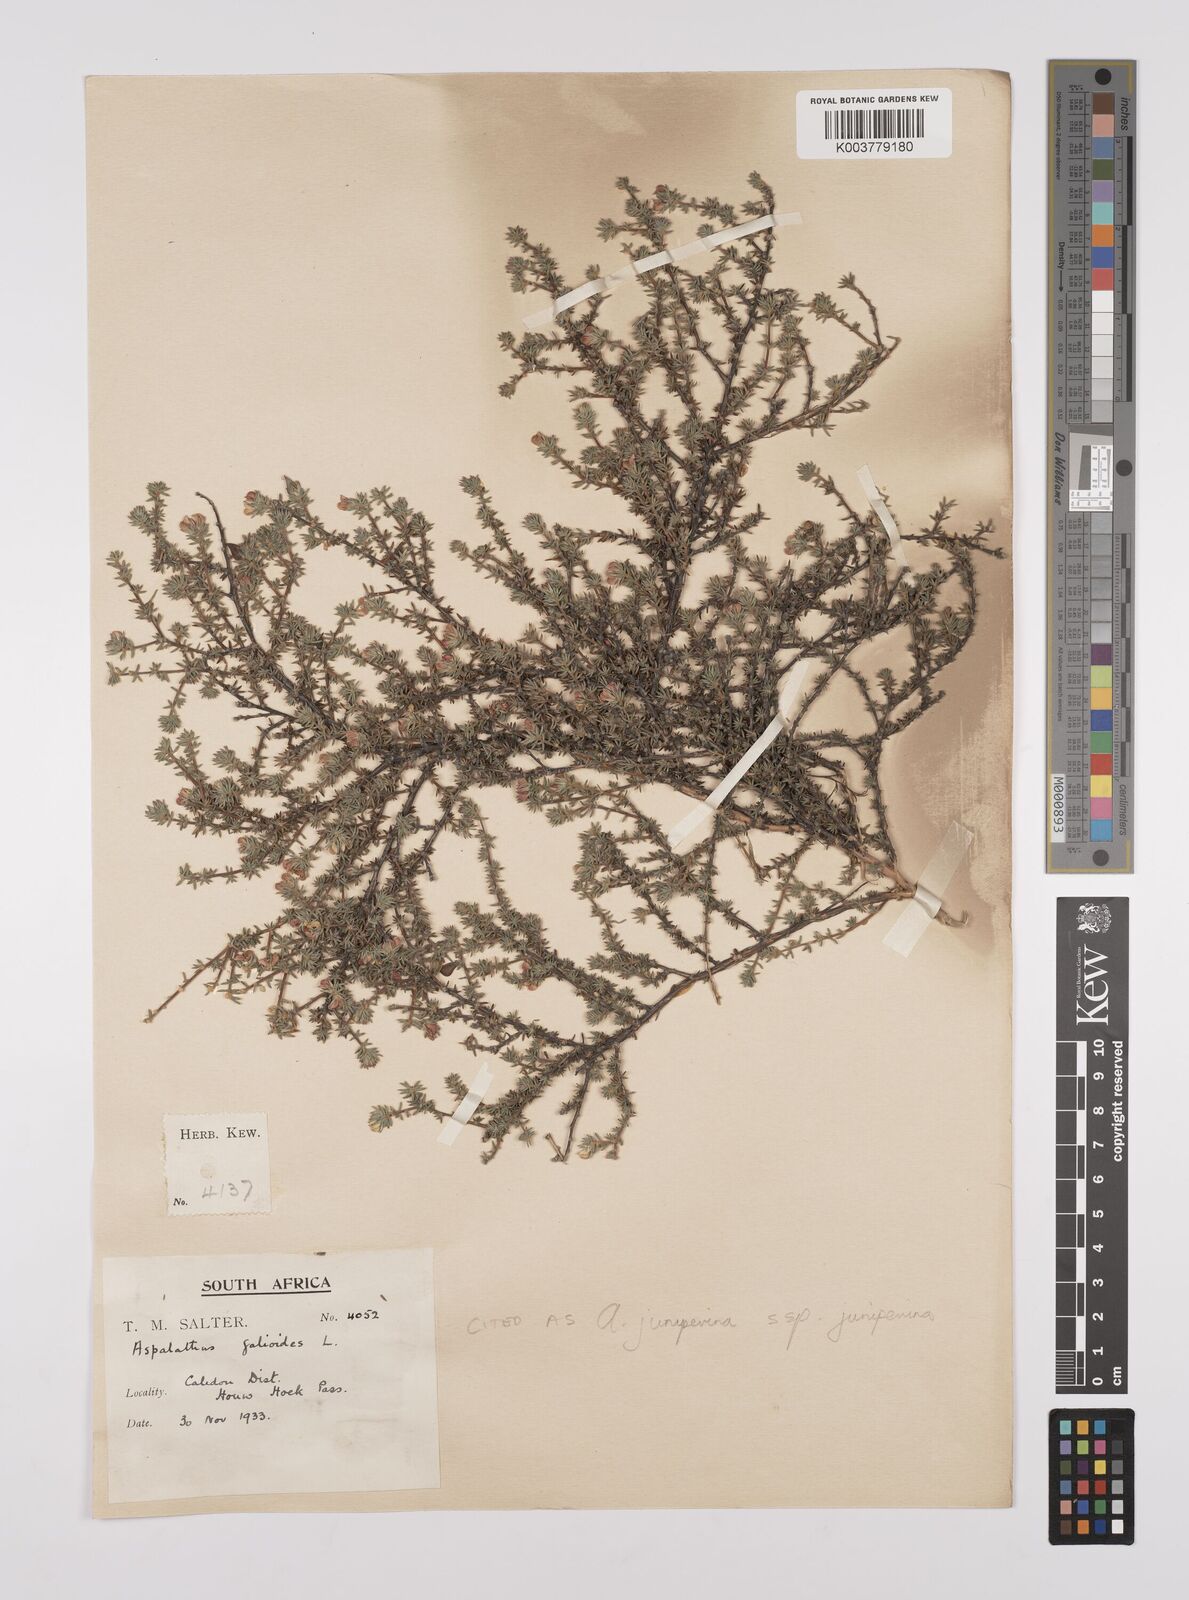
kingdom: Plantae
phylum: Tracheophyta
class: Magnoliopsida
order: Fabales
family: Fabaceae
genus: Aspalathus
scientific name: Aspalathus juniperina
